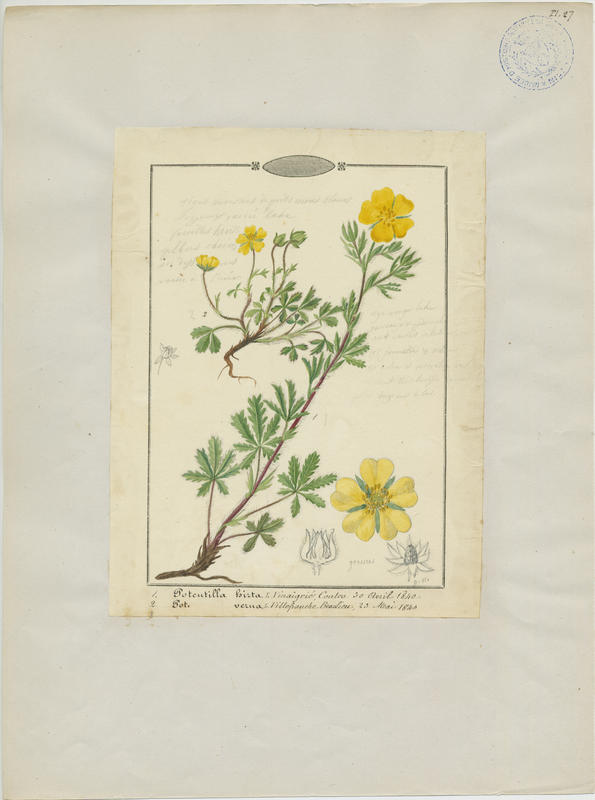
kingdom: Plantae
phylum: Tracheophyta
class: Magnoliopsida
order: Rosales
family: Rosaceae
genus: Potentilla
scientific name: Potentilla hirta
